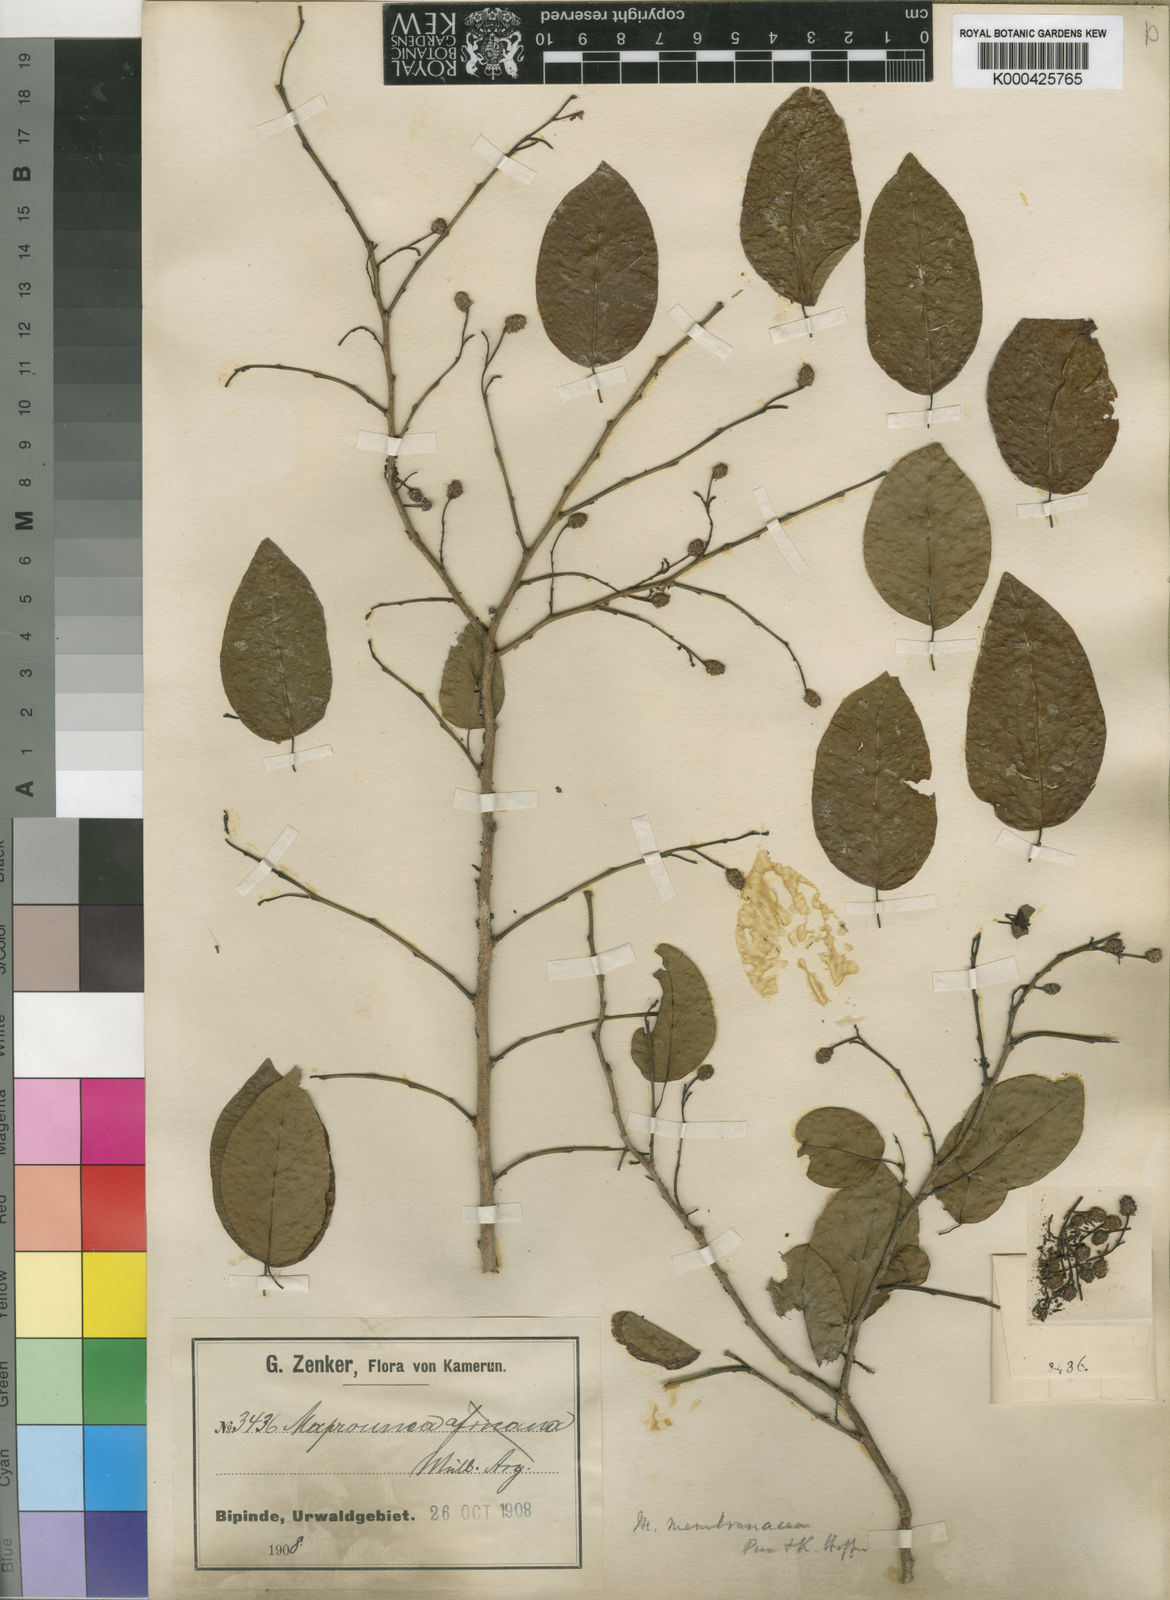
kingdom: Plantae
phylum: Tracheophyta
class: Magnoliopsida
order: Malpighiales
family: Euphorbiaceae
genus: Maprounea
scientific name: Maprounea membranacea
